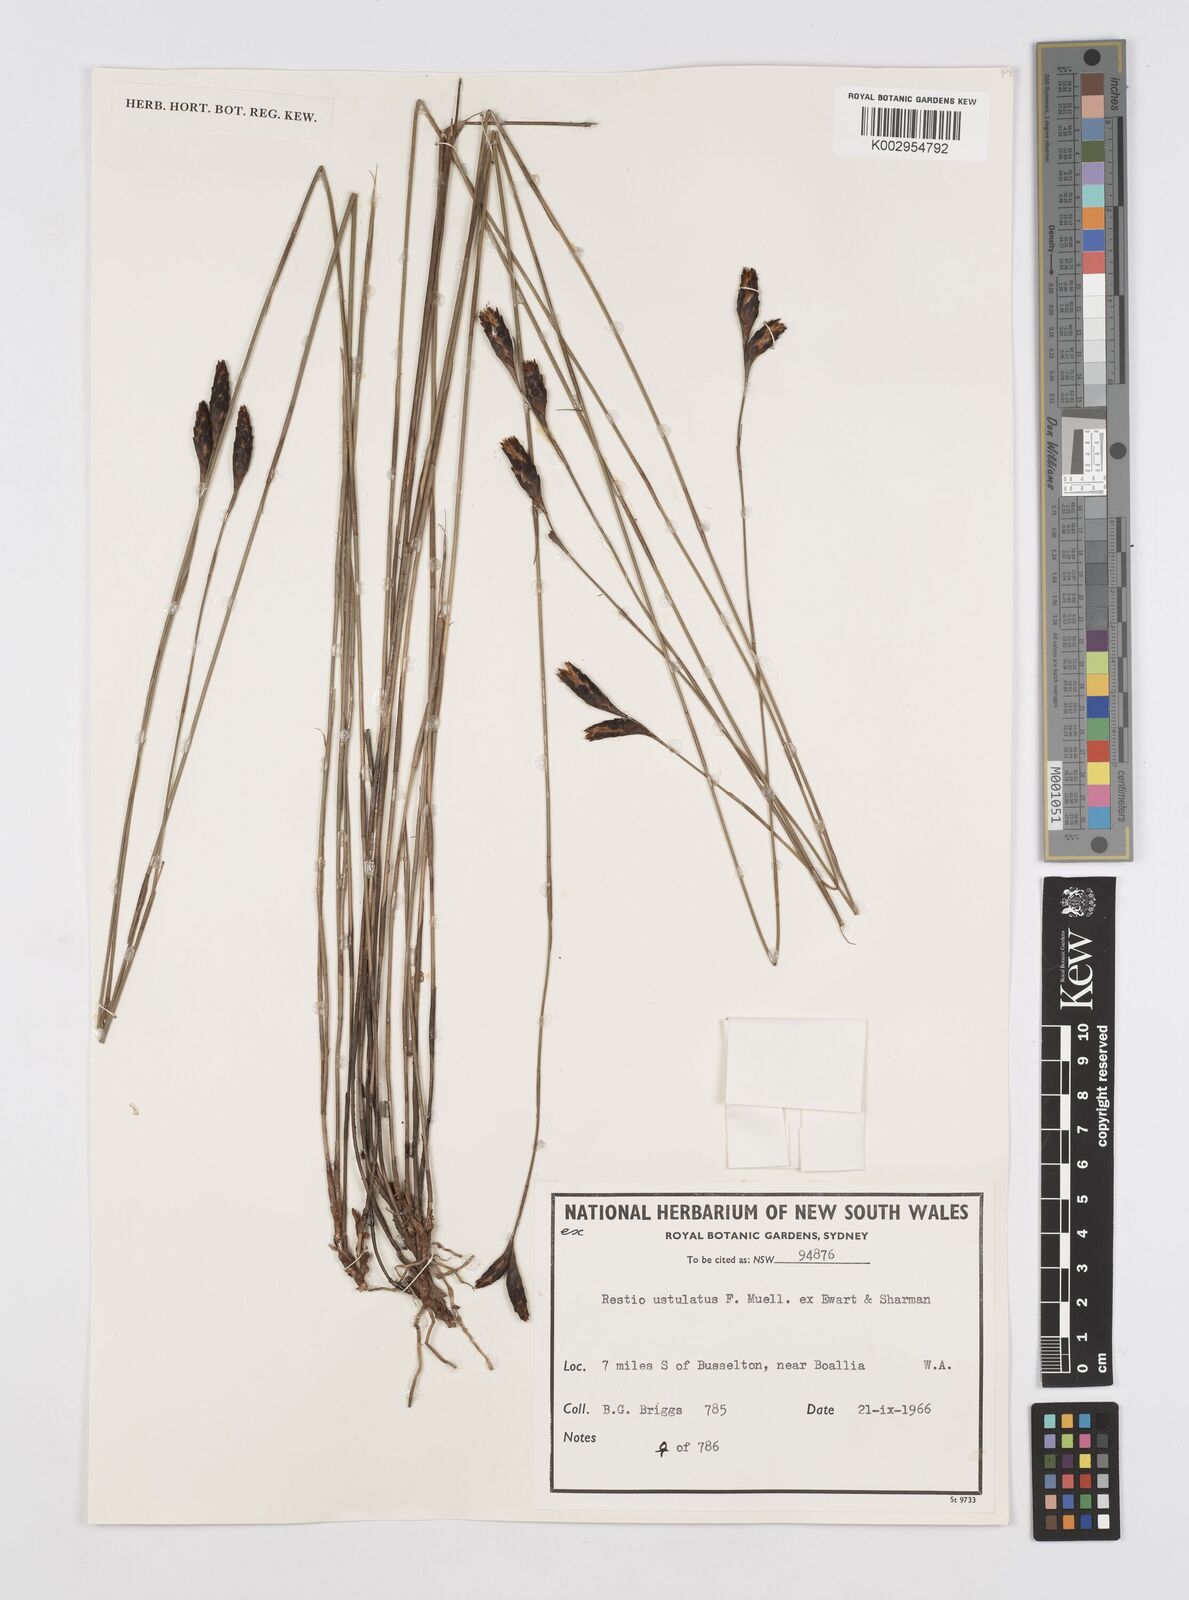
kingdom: Plantae
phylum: Tracheophyta
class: Liliopsida
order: Poales
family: Restionaceae
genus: Melanostachya
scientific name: Melanostachya ustulata
